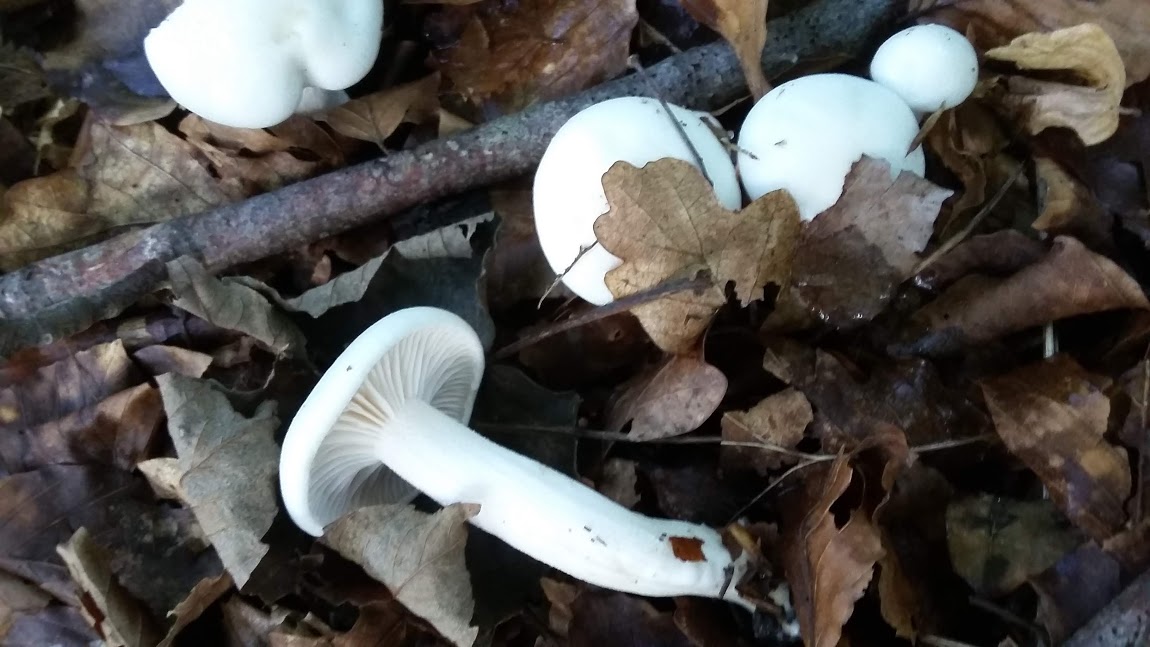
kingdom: Fungi
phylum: Basidiomycota
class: Agaricomycetes
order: Agaricales
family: Hygrophoraceae
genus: Hygrophorus
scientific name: Hygrophorus
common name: sneglehat
